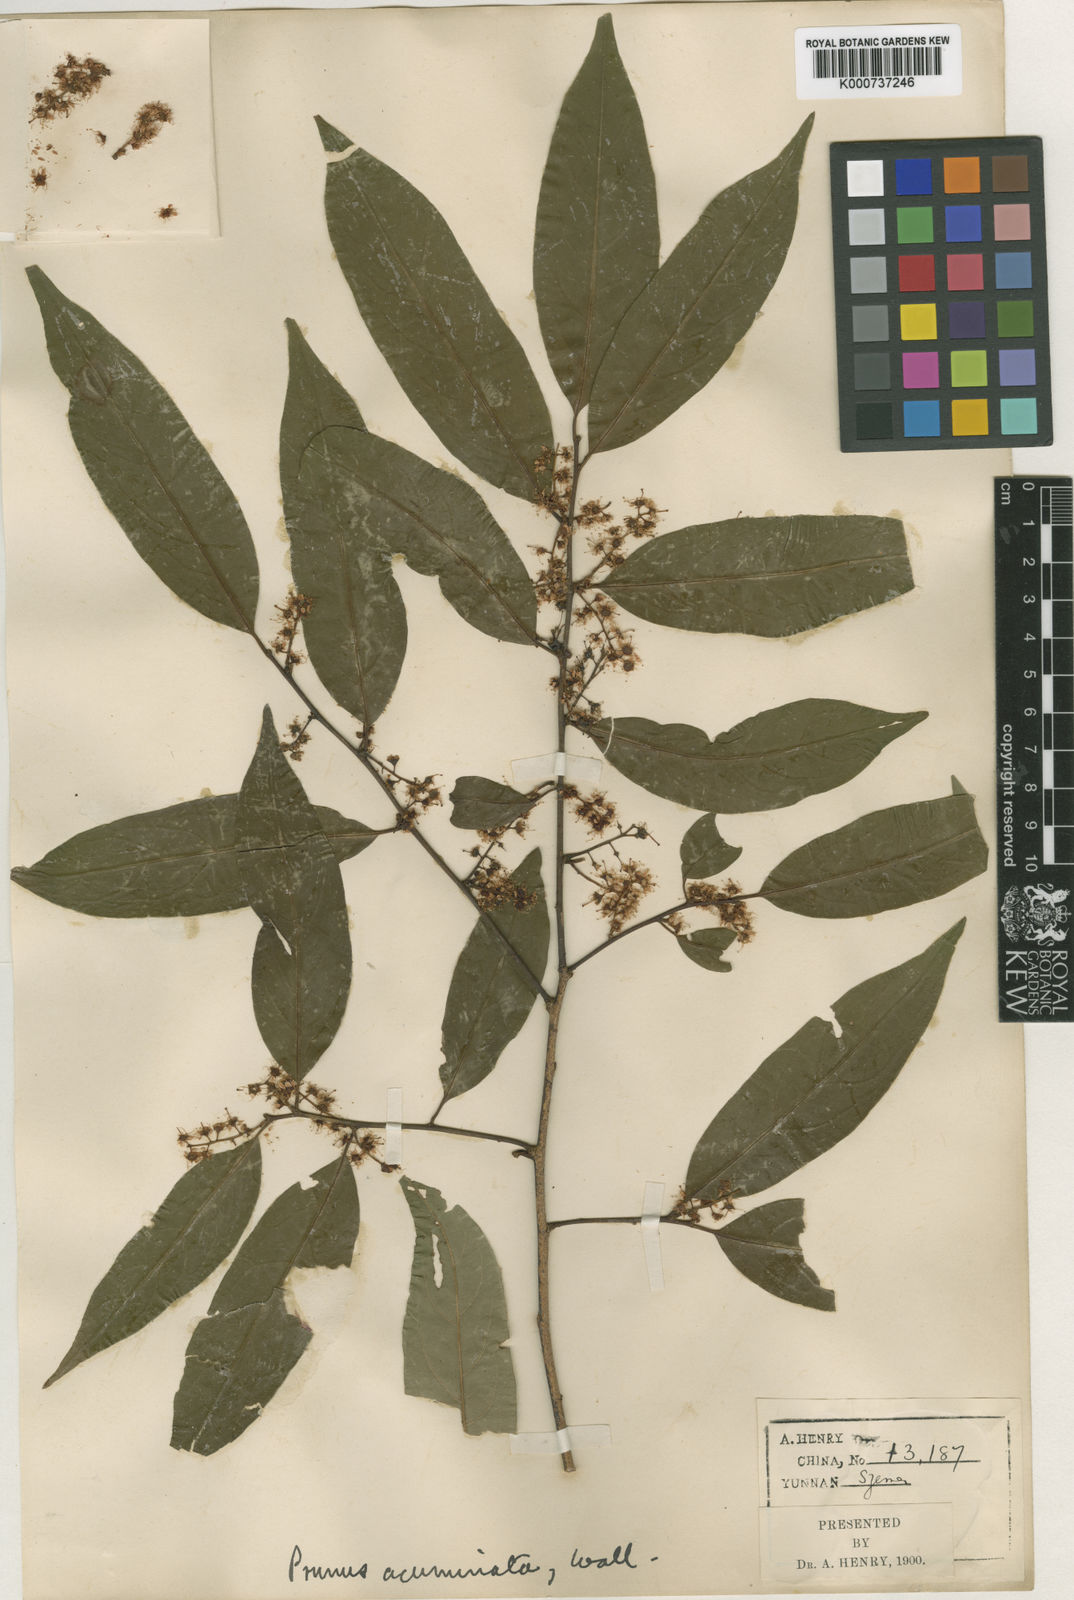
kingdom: Plantae
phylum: Tracheophyta
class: Magnoliopsida
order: Rosales
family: Rosaceae
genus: Prunus
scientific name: Prunus undulata
